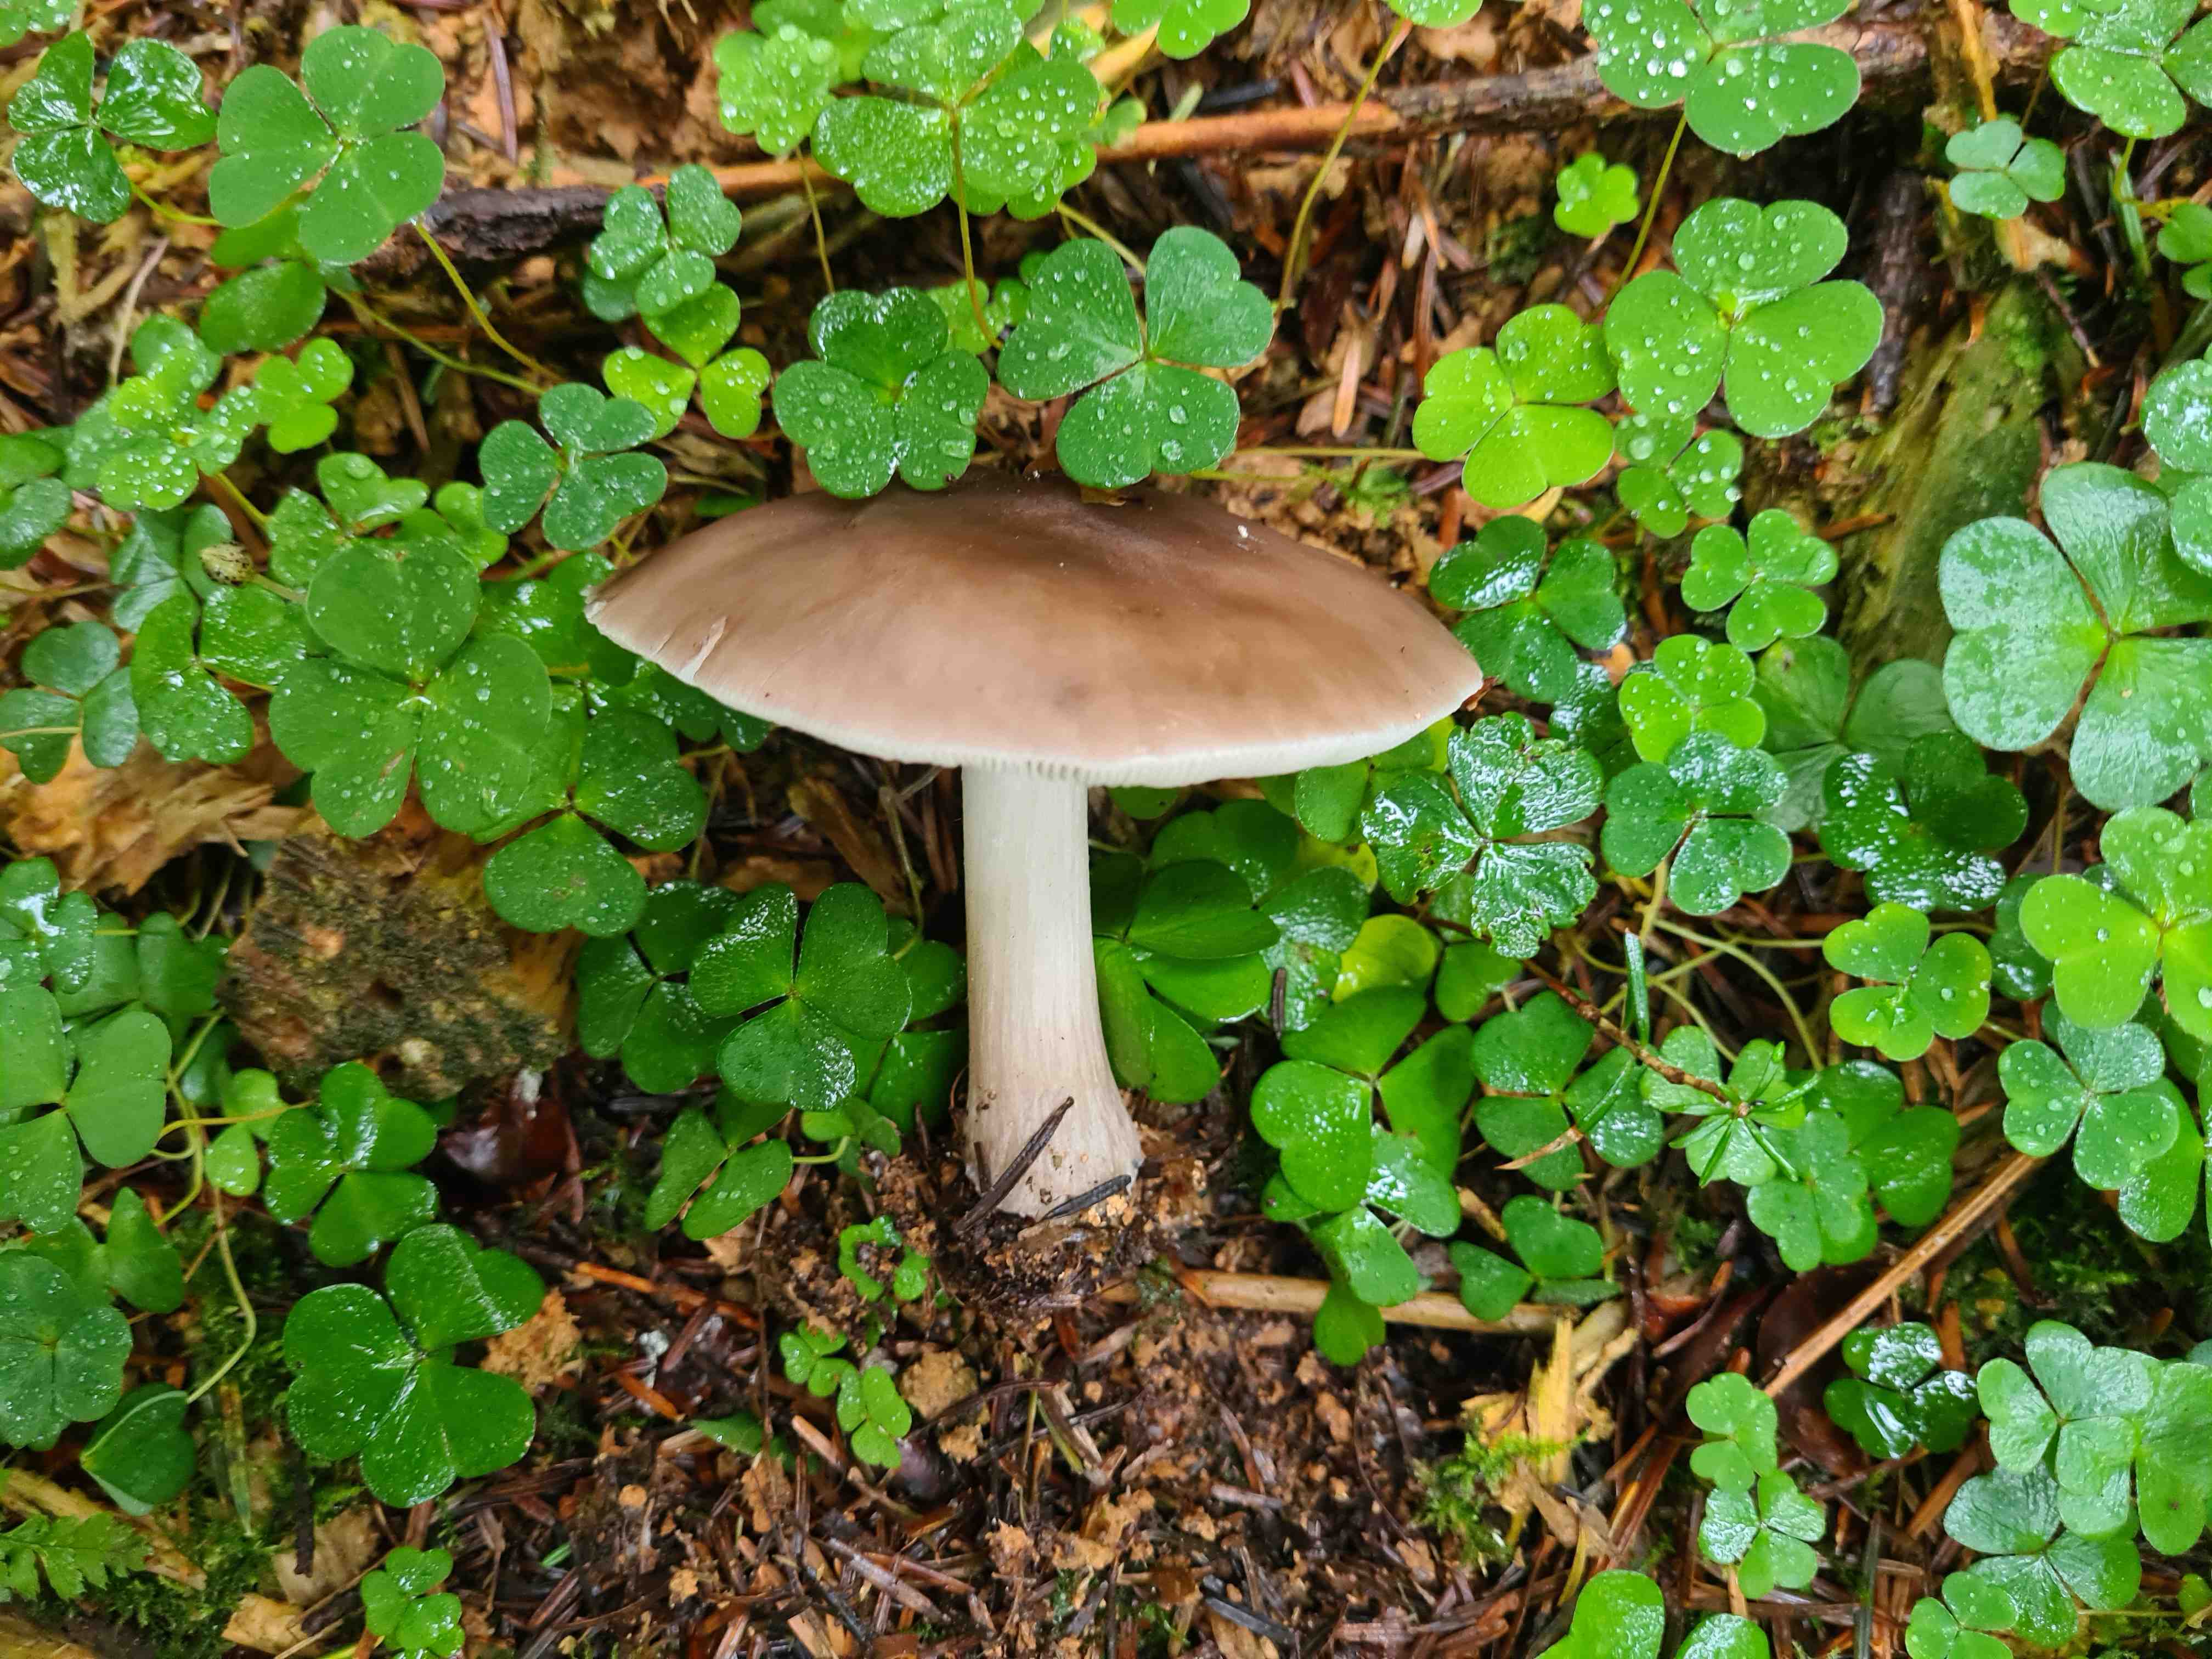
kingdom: Fungi
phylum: Basidiomycota
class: Agaricomycetes
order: Agaricales
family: Pluteaceae
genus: Pluteus
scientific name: Pluteus cervinus
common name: sodfarvet skærmhat
